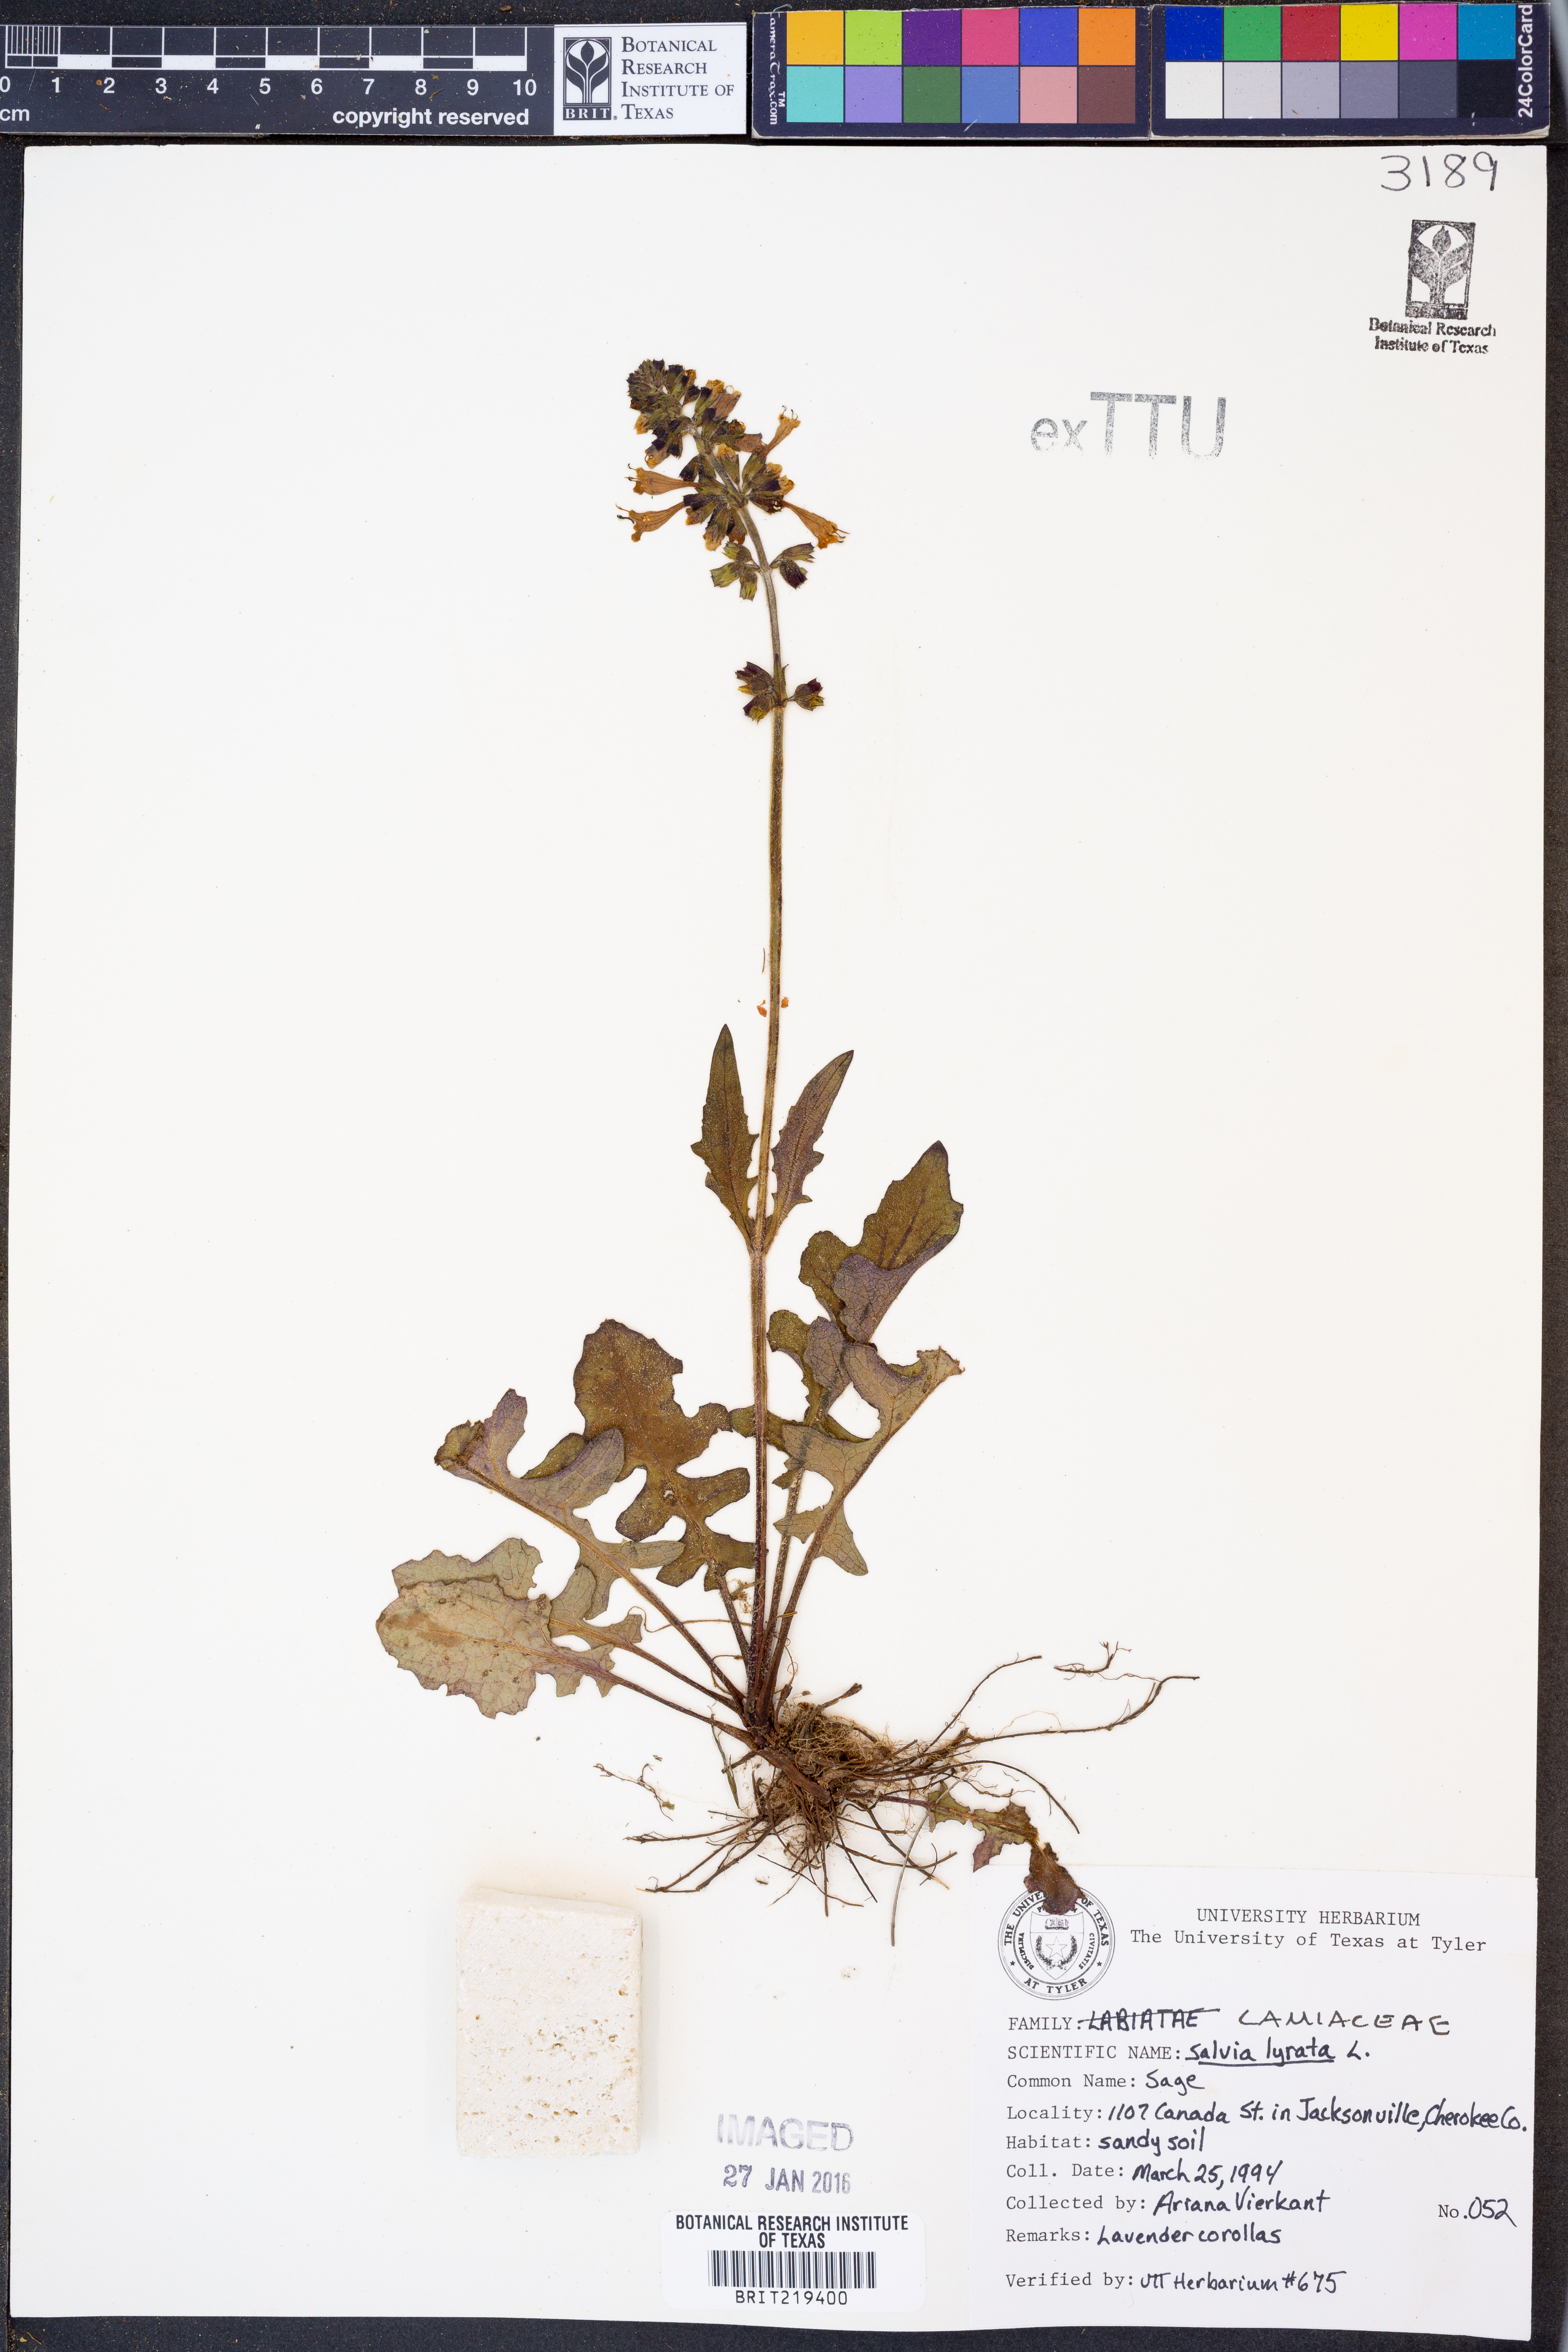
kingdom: Plantae
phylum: Tracheophyta
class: Magnoliopsida
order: Lamiales
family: Lamiaceae
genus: Salvia
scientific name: Salvia lyrata
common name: Cancerweed
